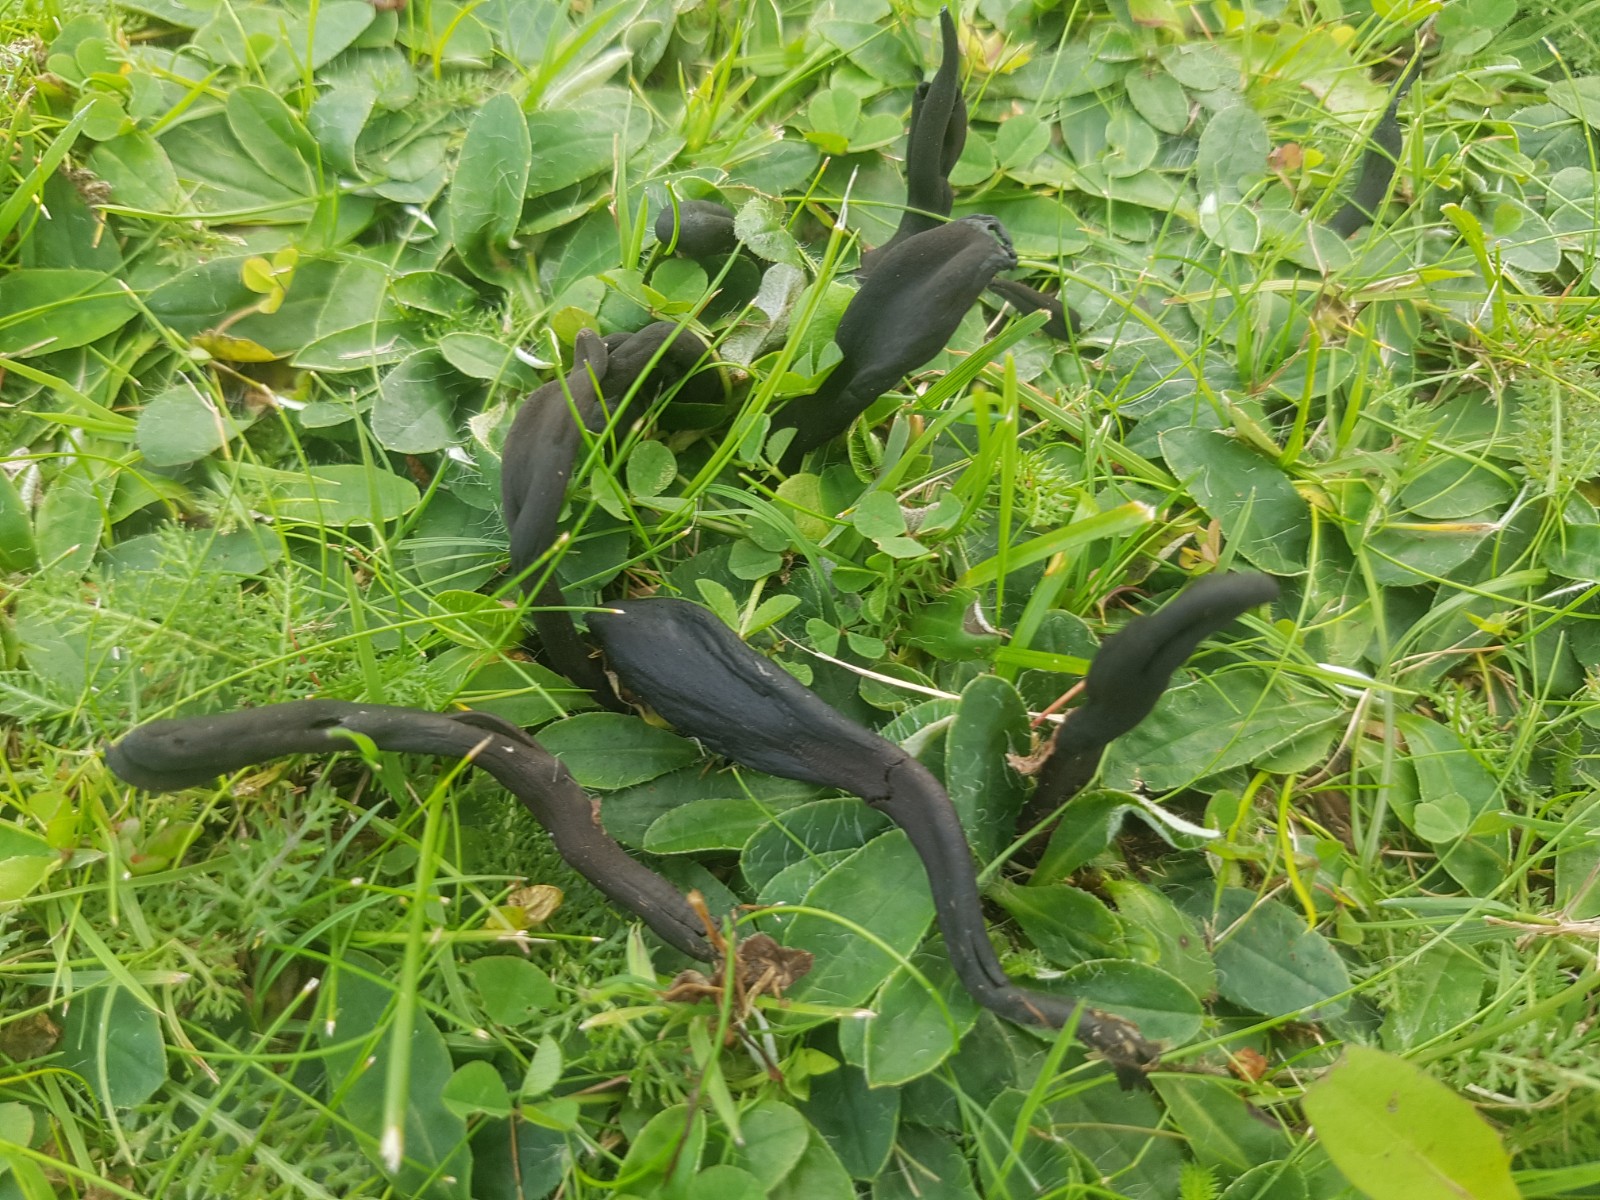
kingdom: Fungi
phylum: Ascomycota
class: Geoglossomycetes
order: Geoglossales
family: Geoglossaceae
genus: Geoglossum
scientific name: Geoglossum fallax
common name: småskællet jordtunge
